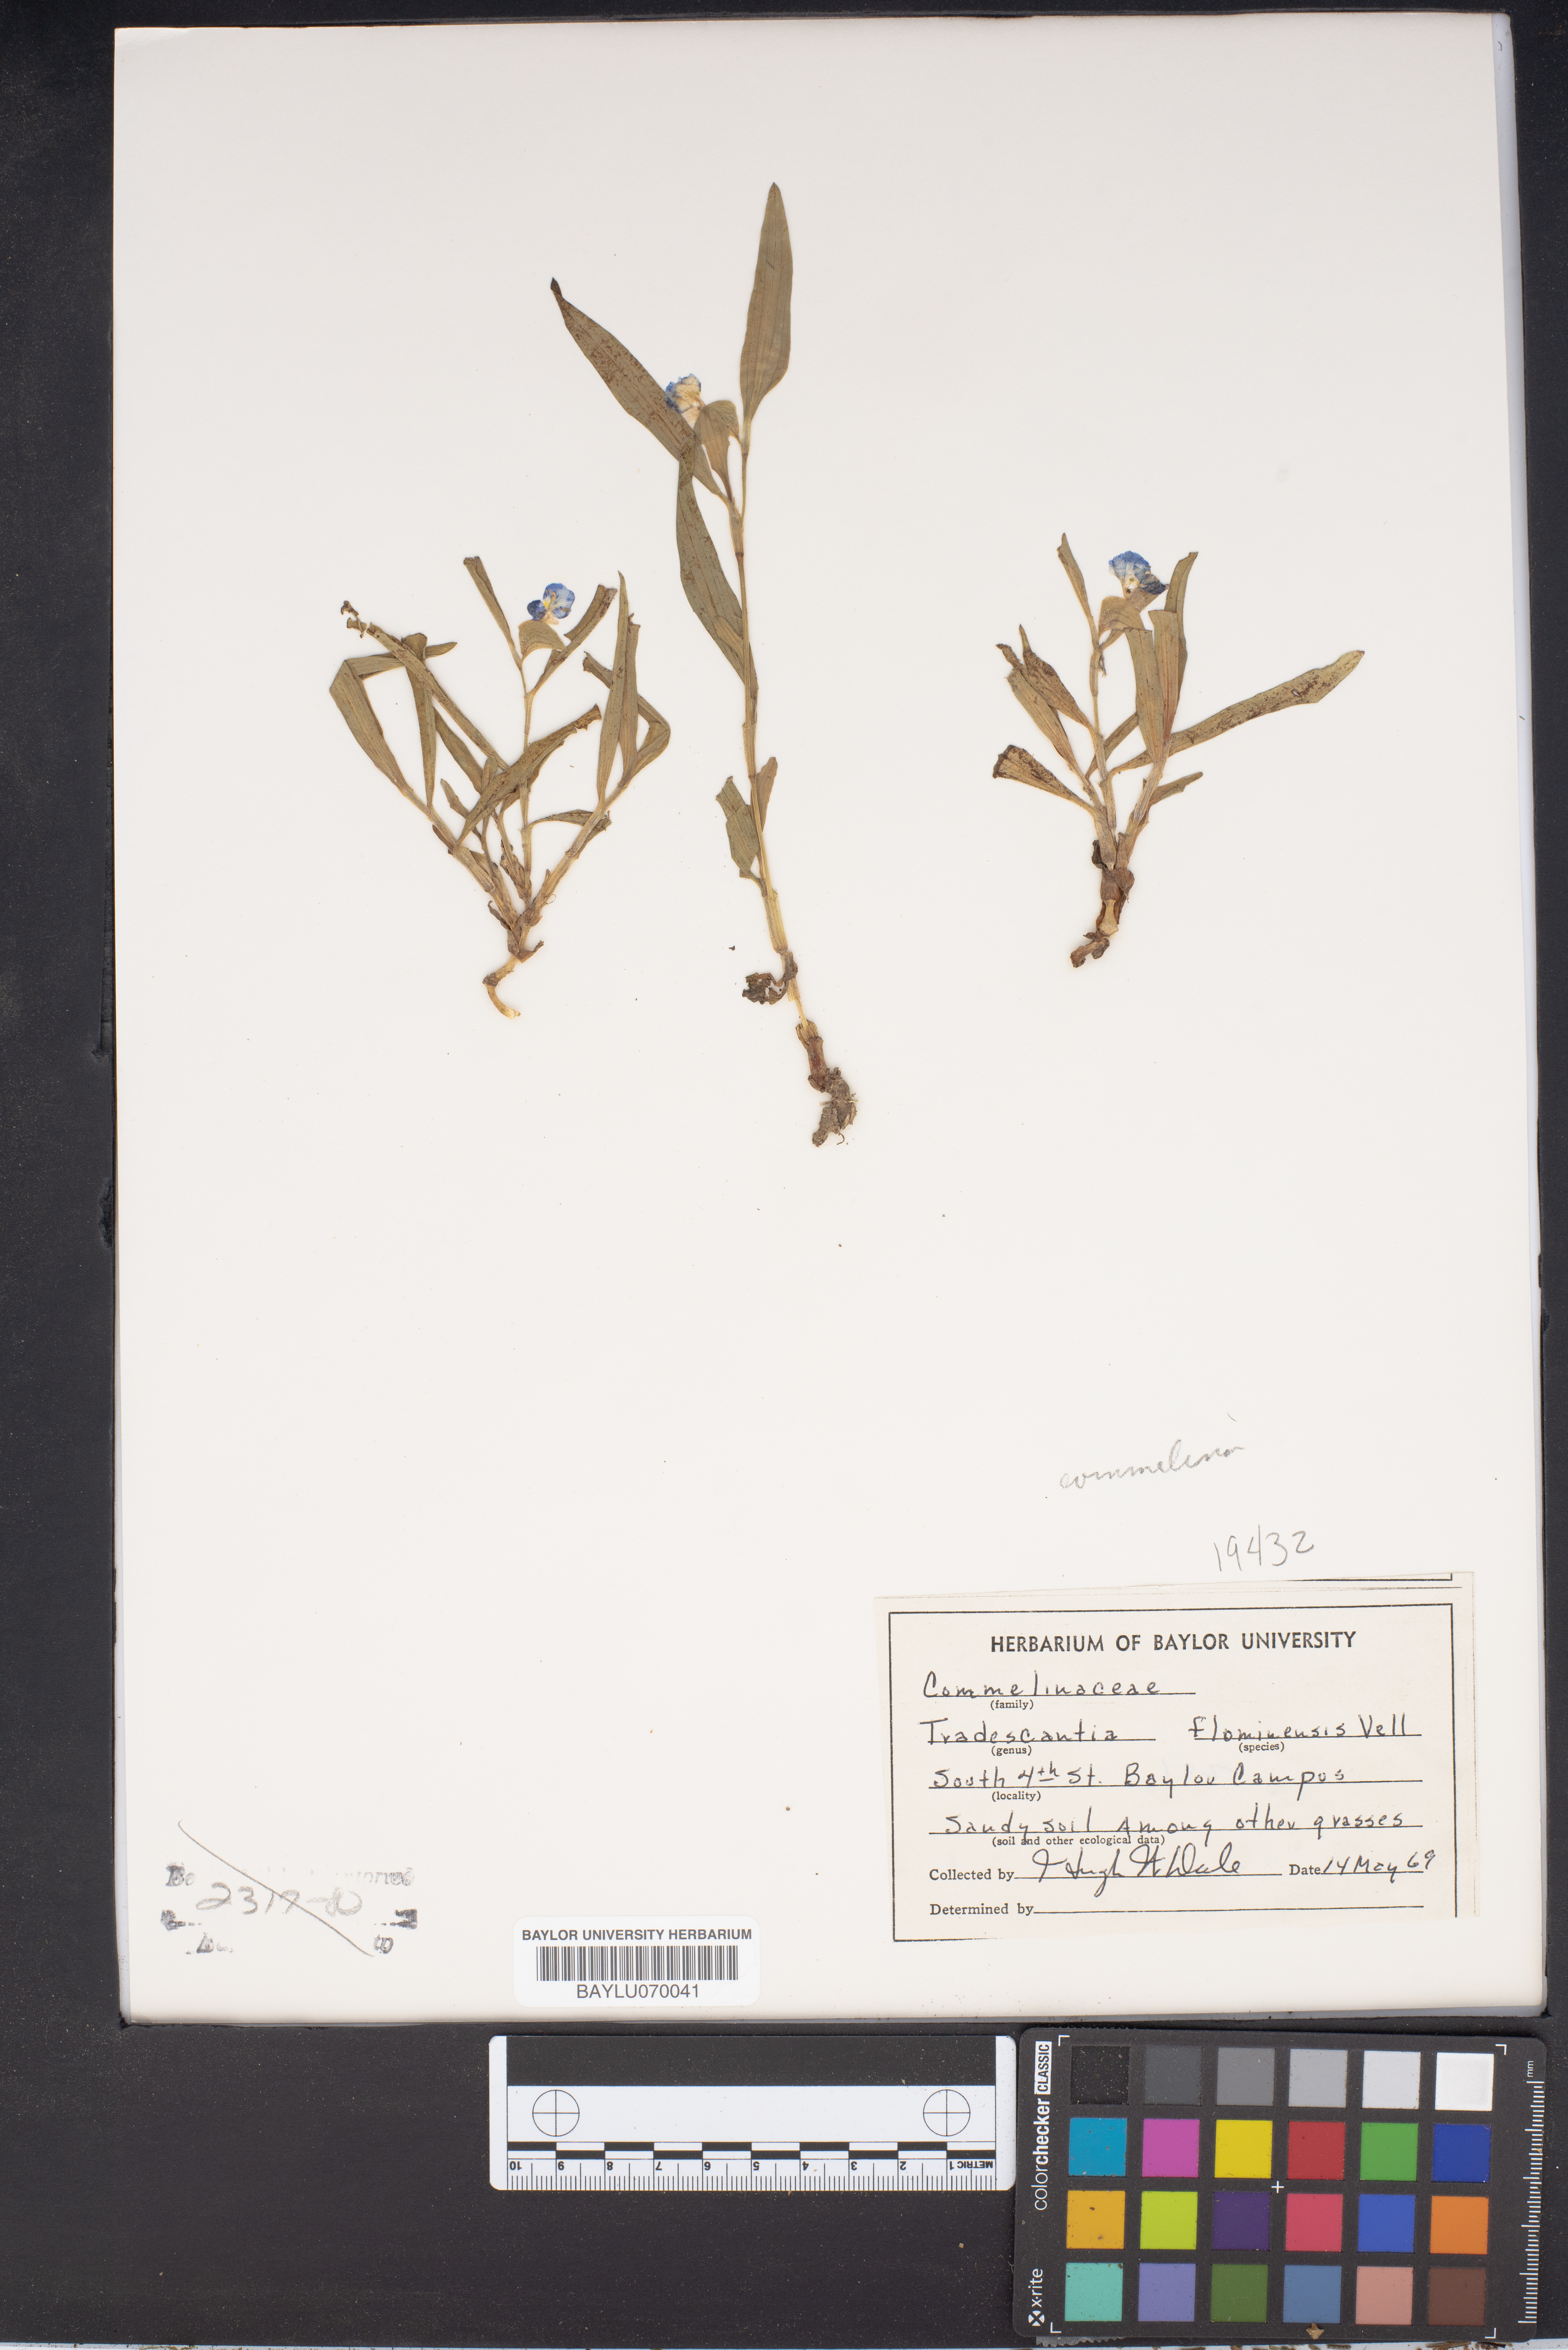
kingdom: Plantae
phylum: Tracheophyta
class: Liliopsida
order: Commelinales
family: Commelinaceae
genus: Tradescantia
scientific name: Tradescantia fluminensis
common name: Wandering-jew
